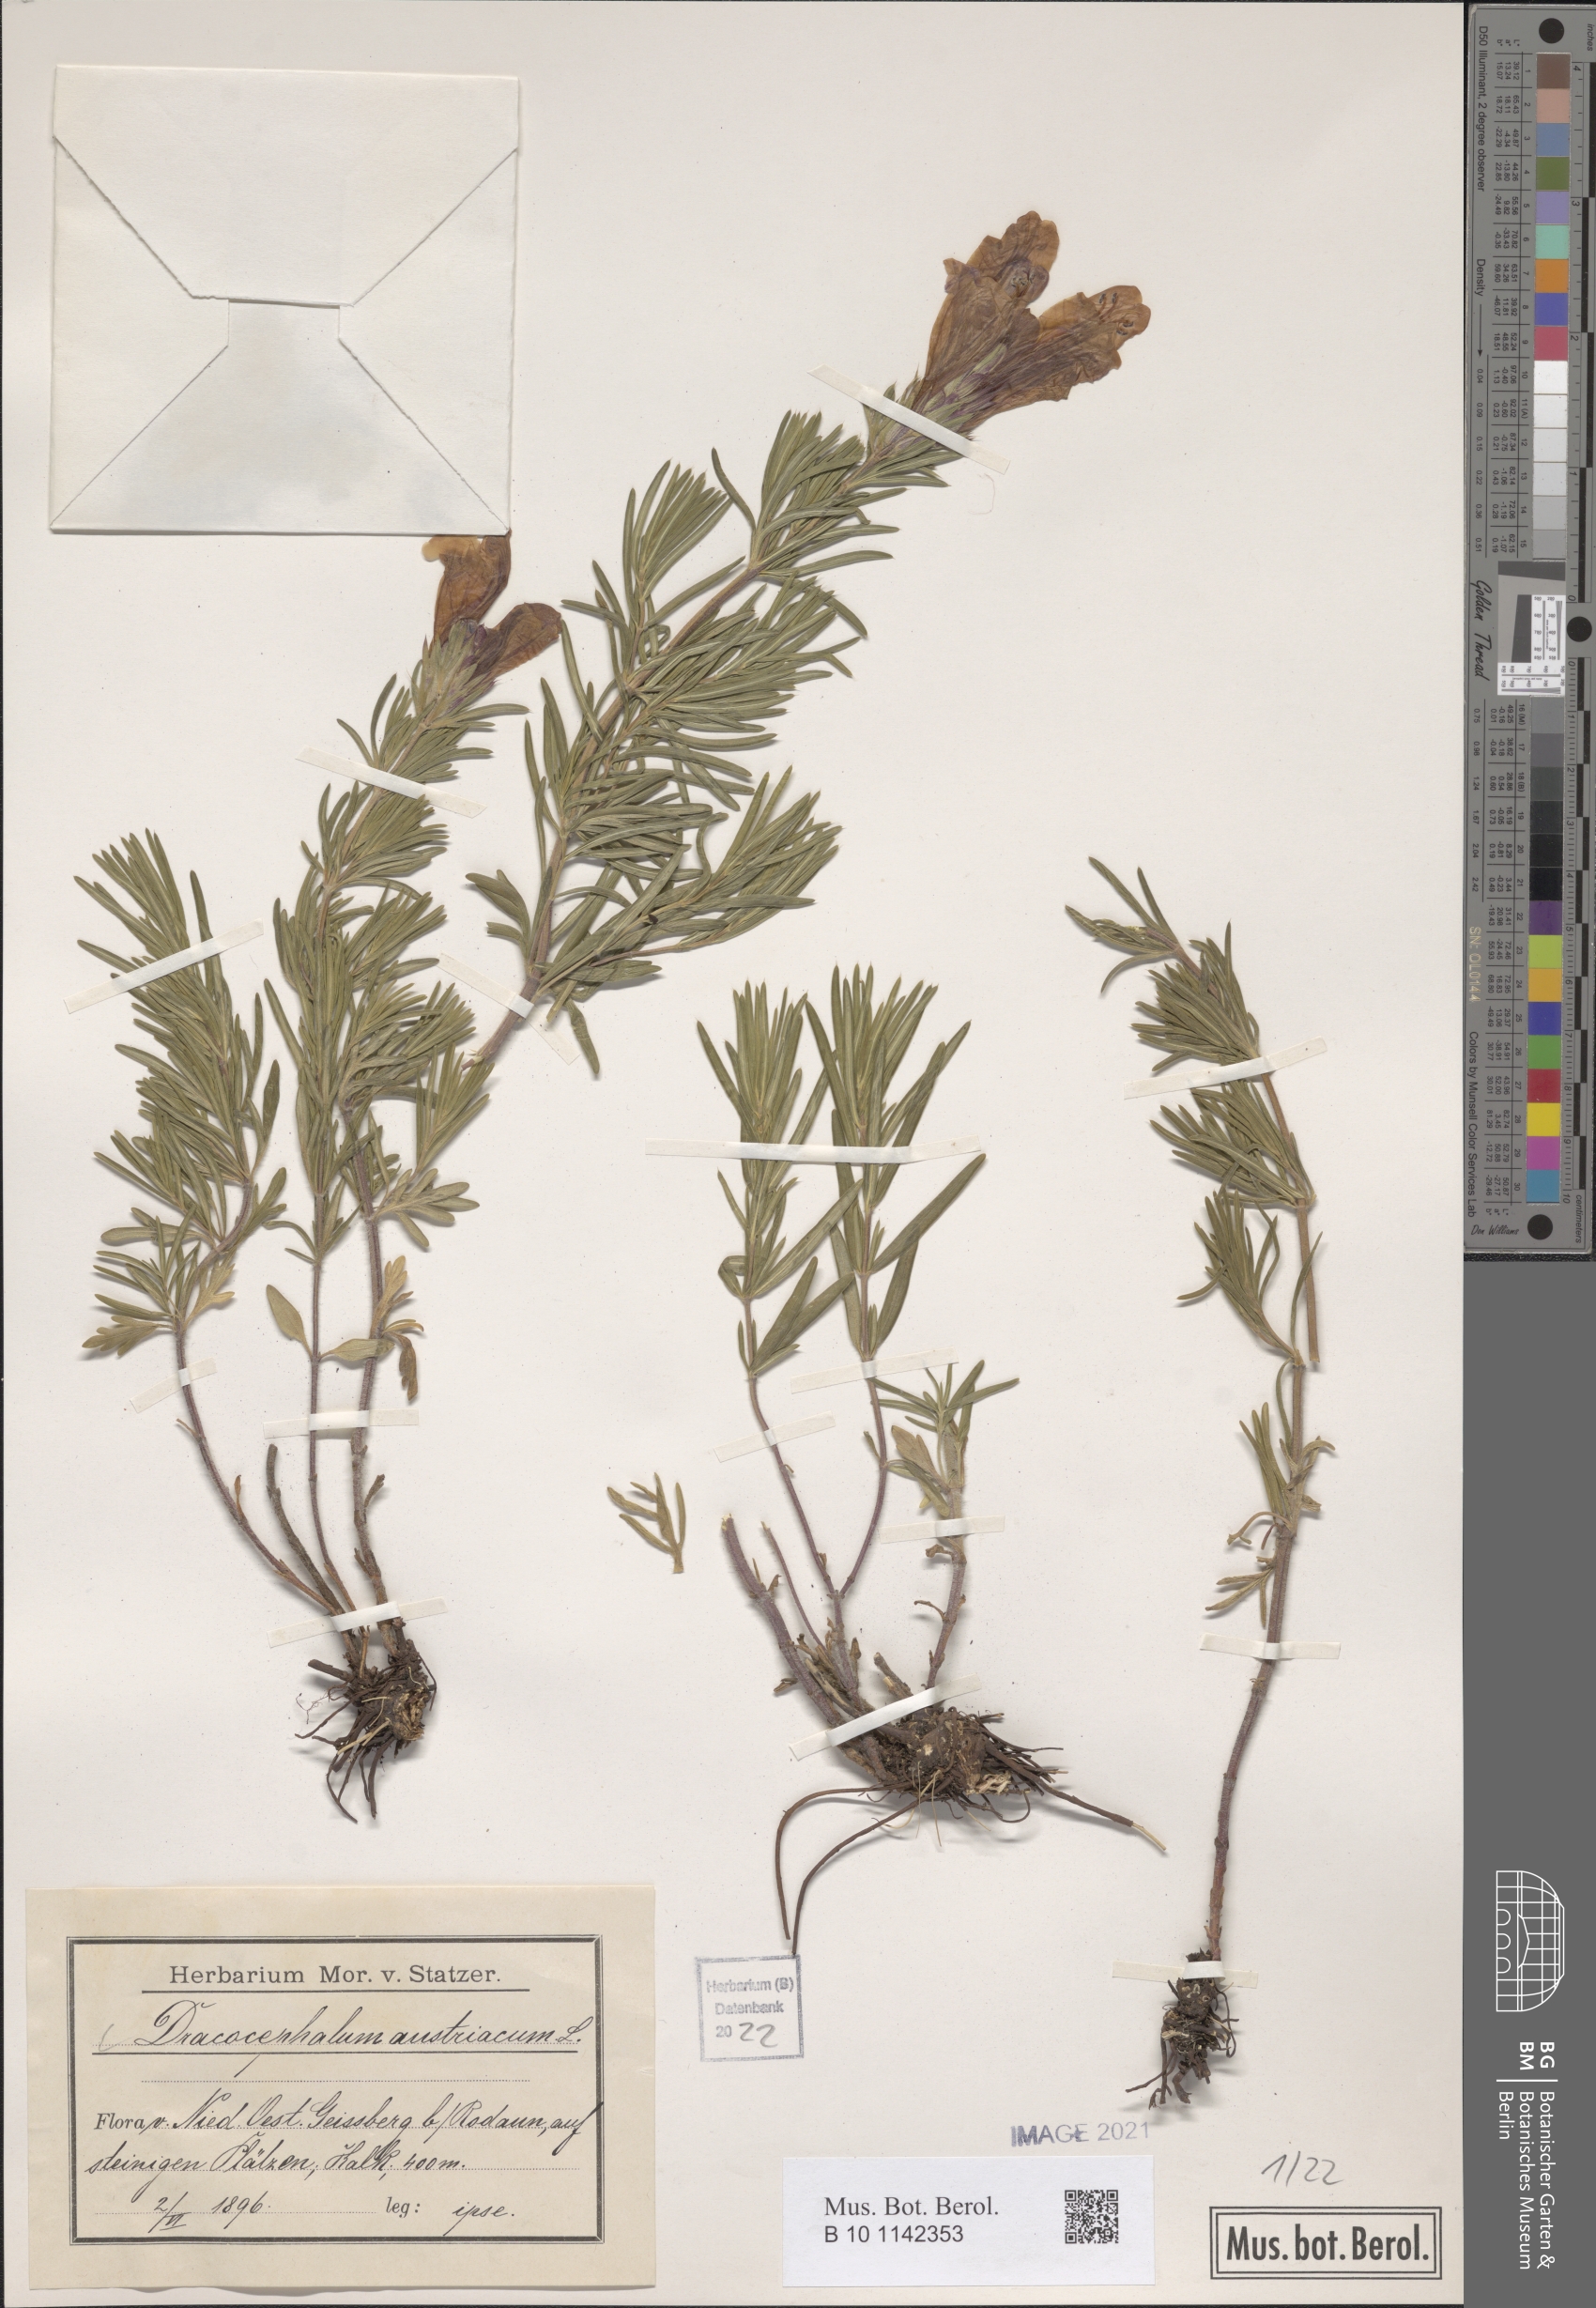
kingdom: Plantae
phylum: Tracheophyta
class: Magnoliopsida
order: Lamiales
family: Lamiaceae
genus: Dracocephalum
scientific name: Dracocephalum austriacum
